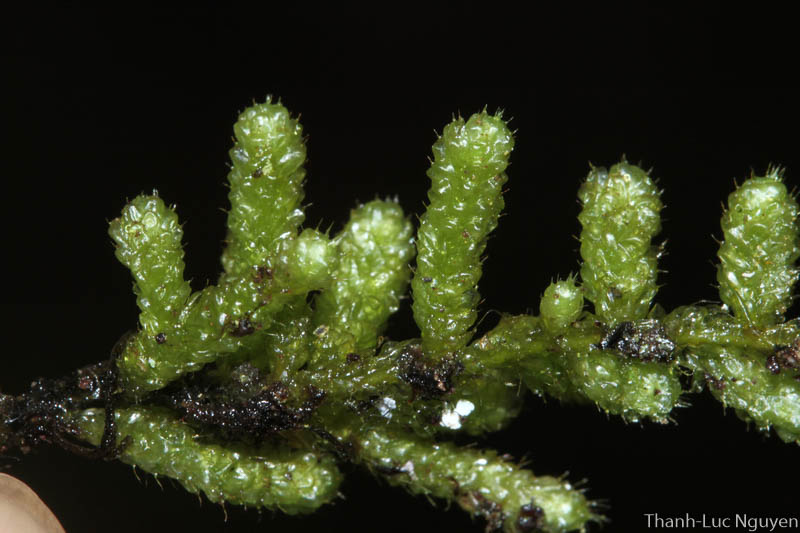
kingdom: Plantae
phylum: Bryophyta
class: Bryopsida
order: Hypnales
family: Meteoriaceae
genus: Meteorium
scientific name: Meteorium
